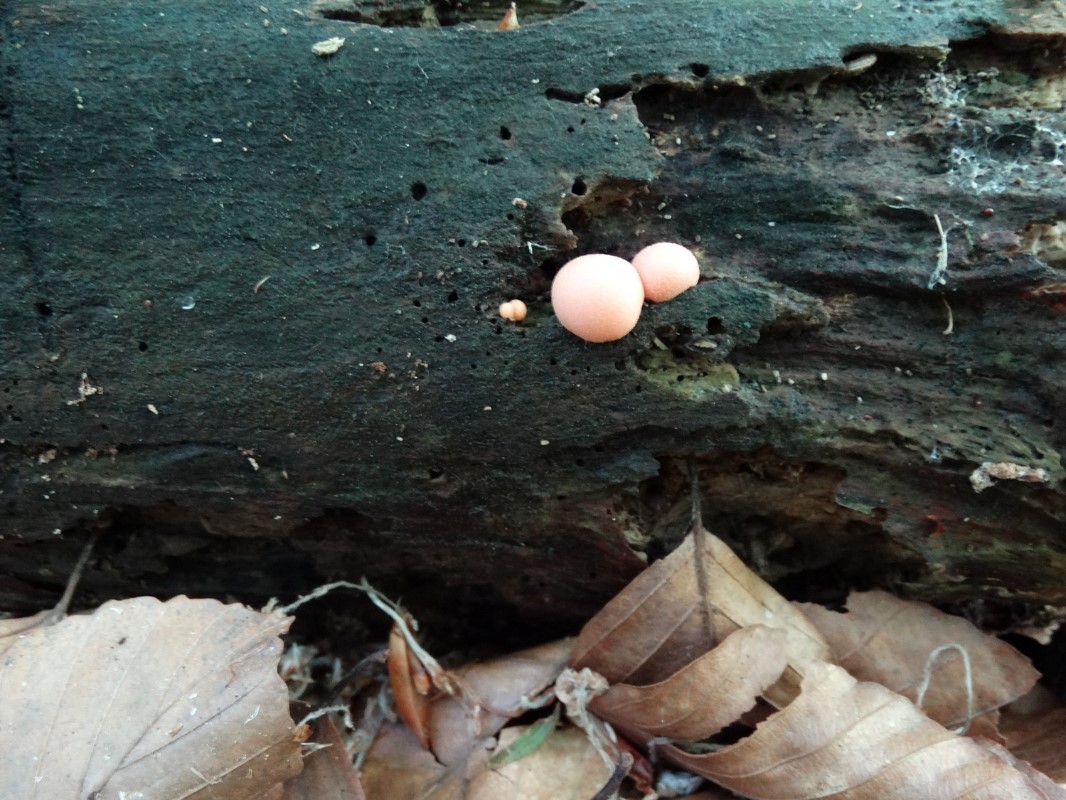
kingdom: Protozoa
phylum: Mycetozoa
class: Myxomycetes
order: Cribrariales
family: Tubiferaceae
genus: Lycogala
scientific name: Lycogala epidendrum
